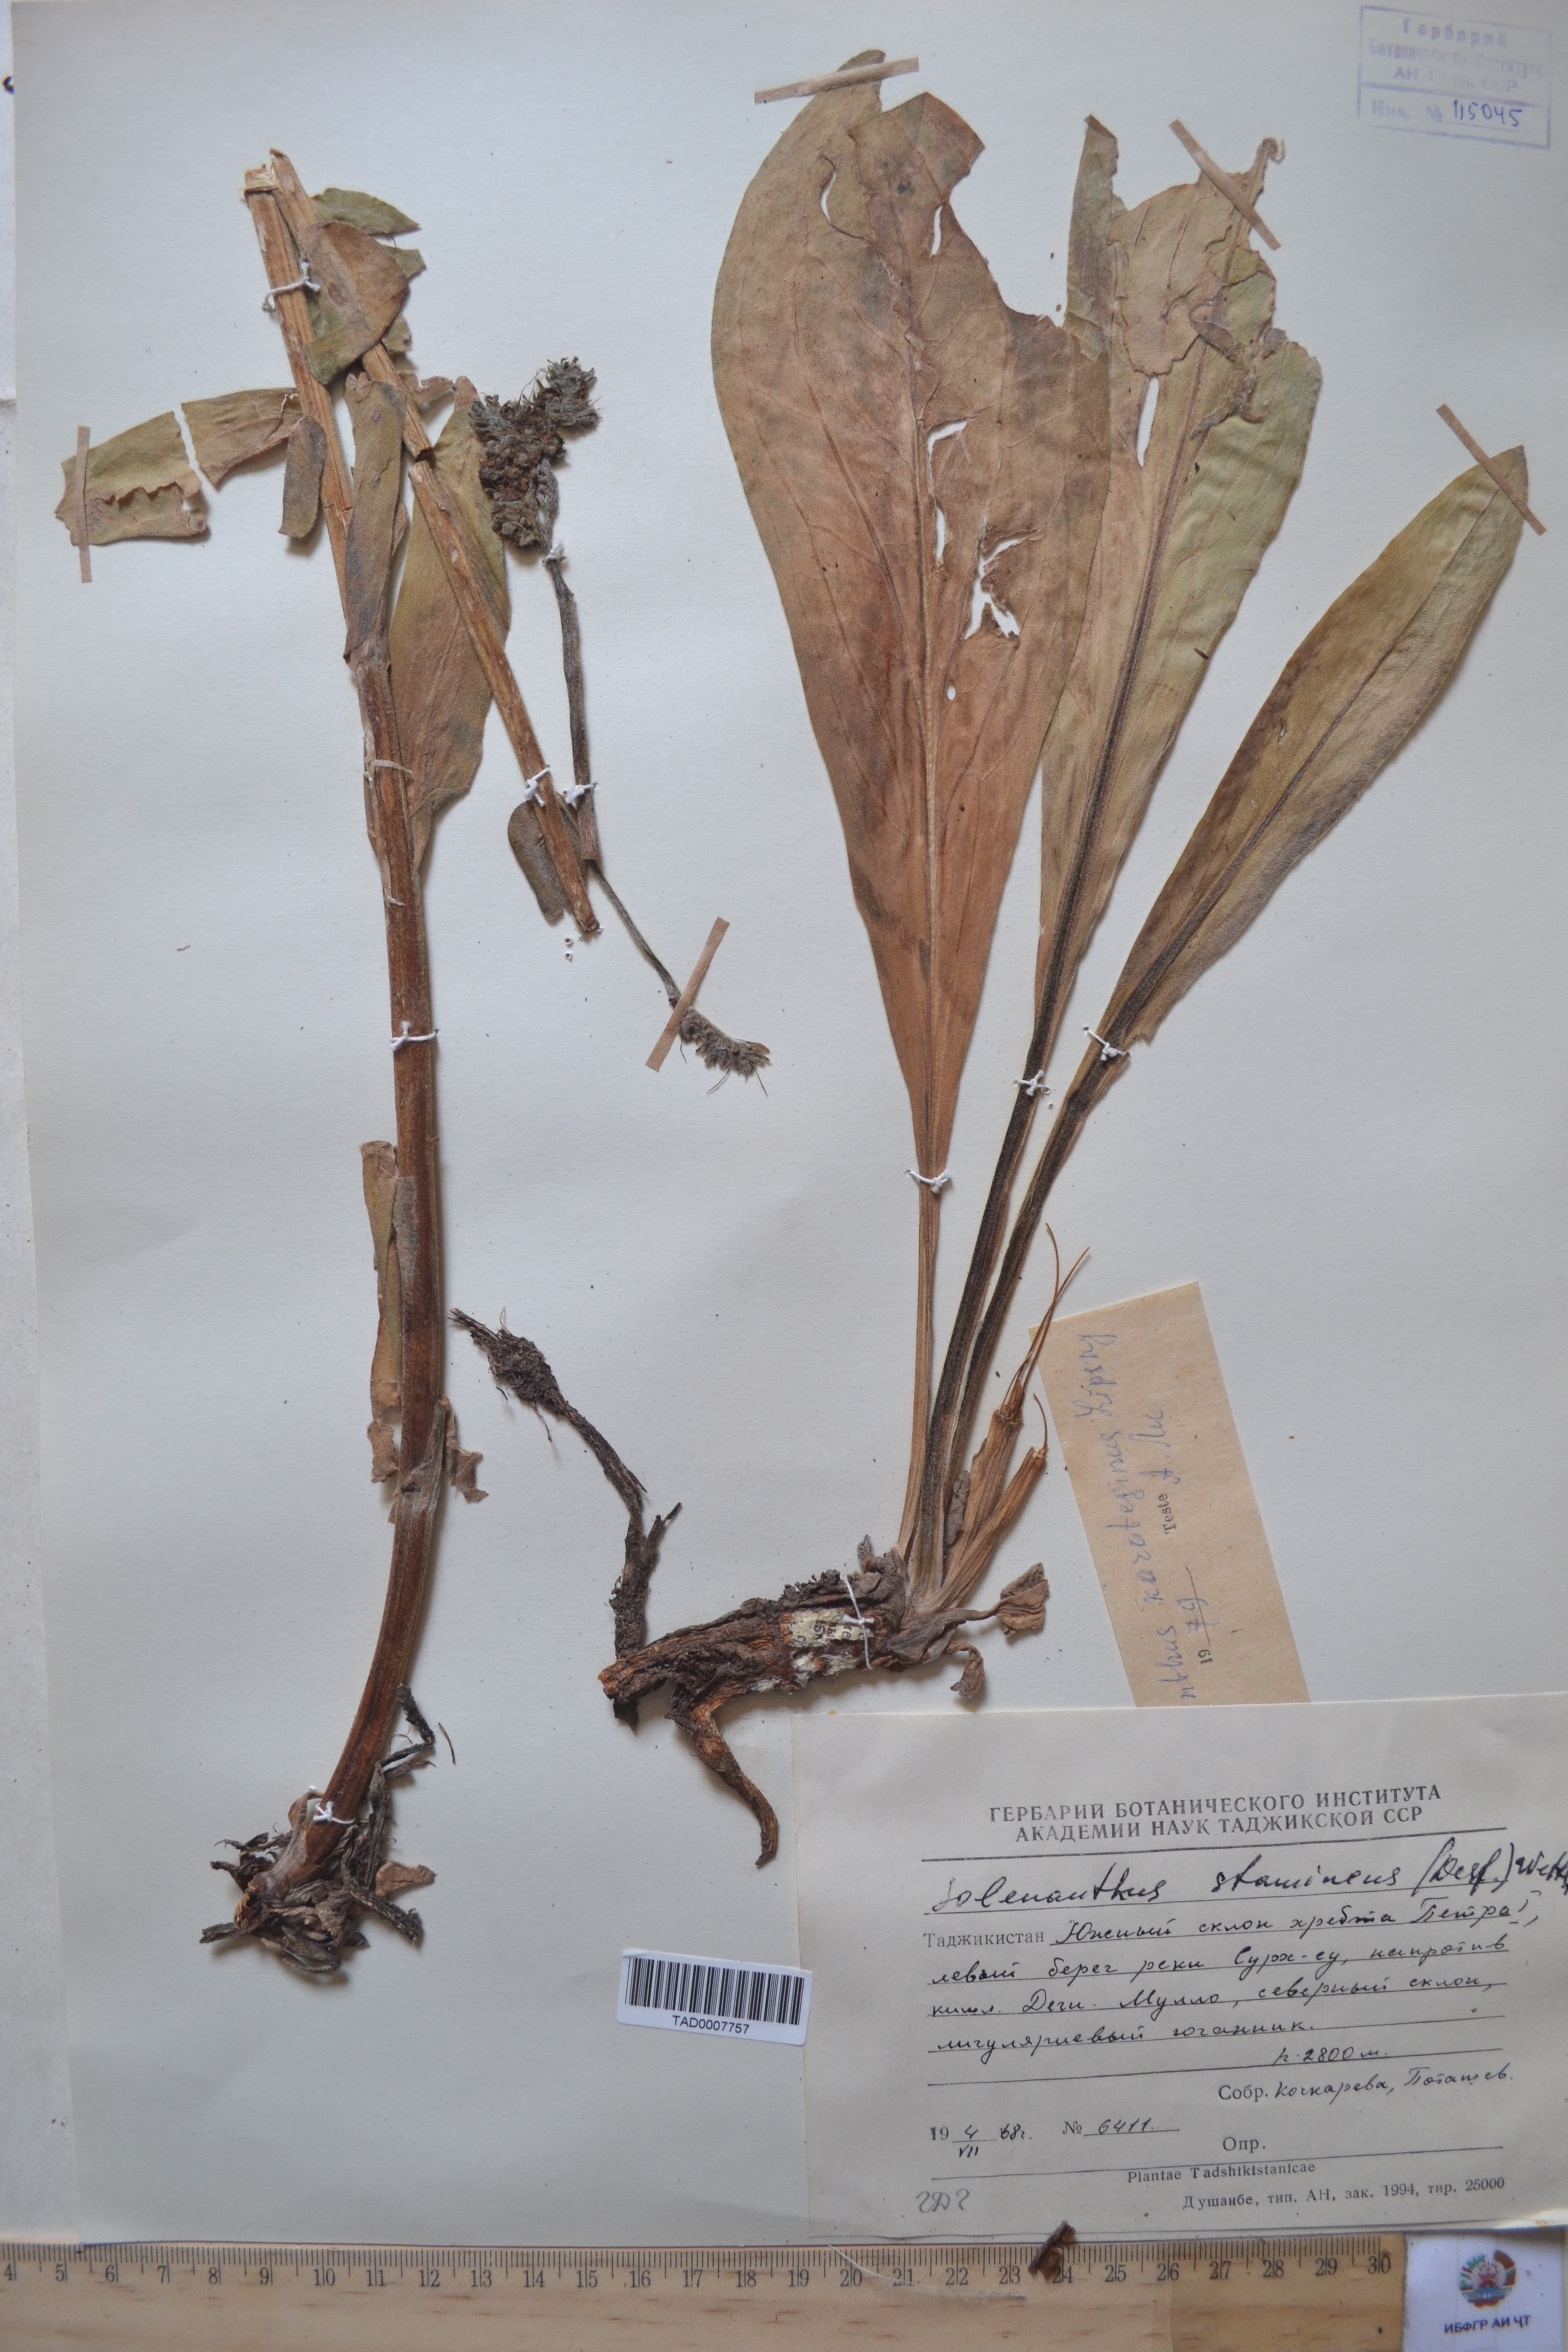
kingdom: Plantae
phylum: Tracheophyta
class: Magnoliopsida
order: Boraginales
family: Boraginaceae
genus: Solenanthus
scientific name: Solenanthus karateginus
